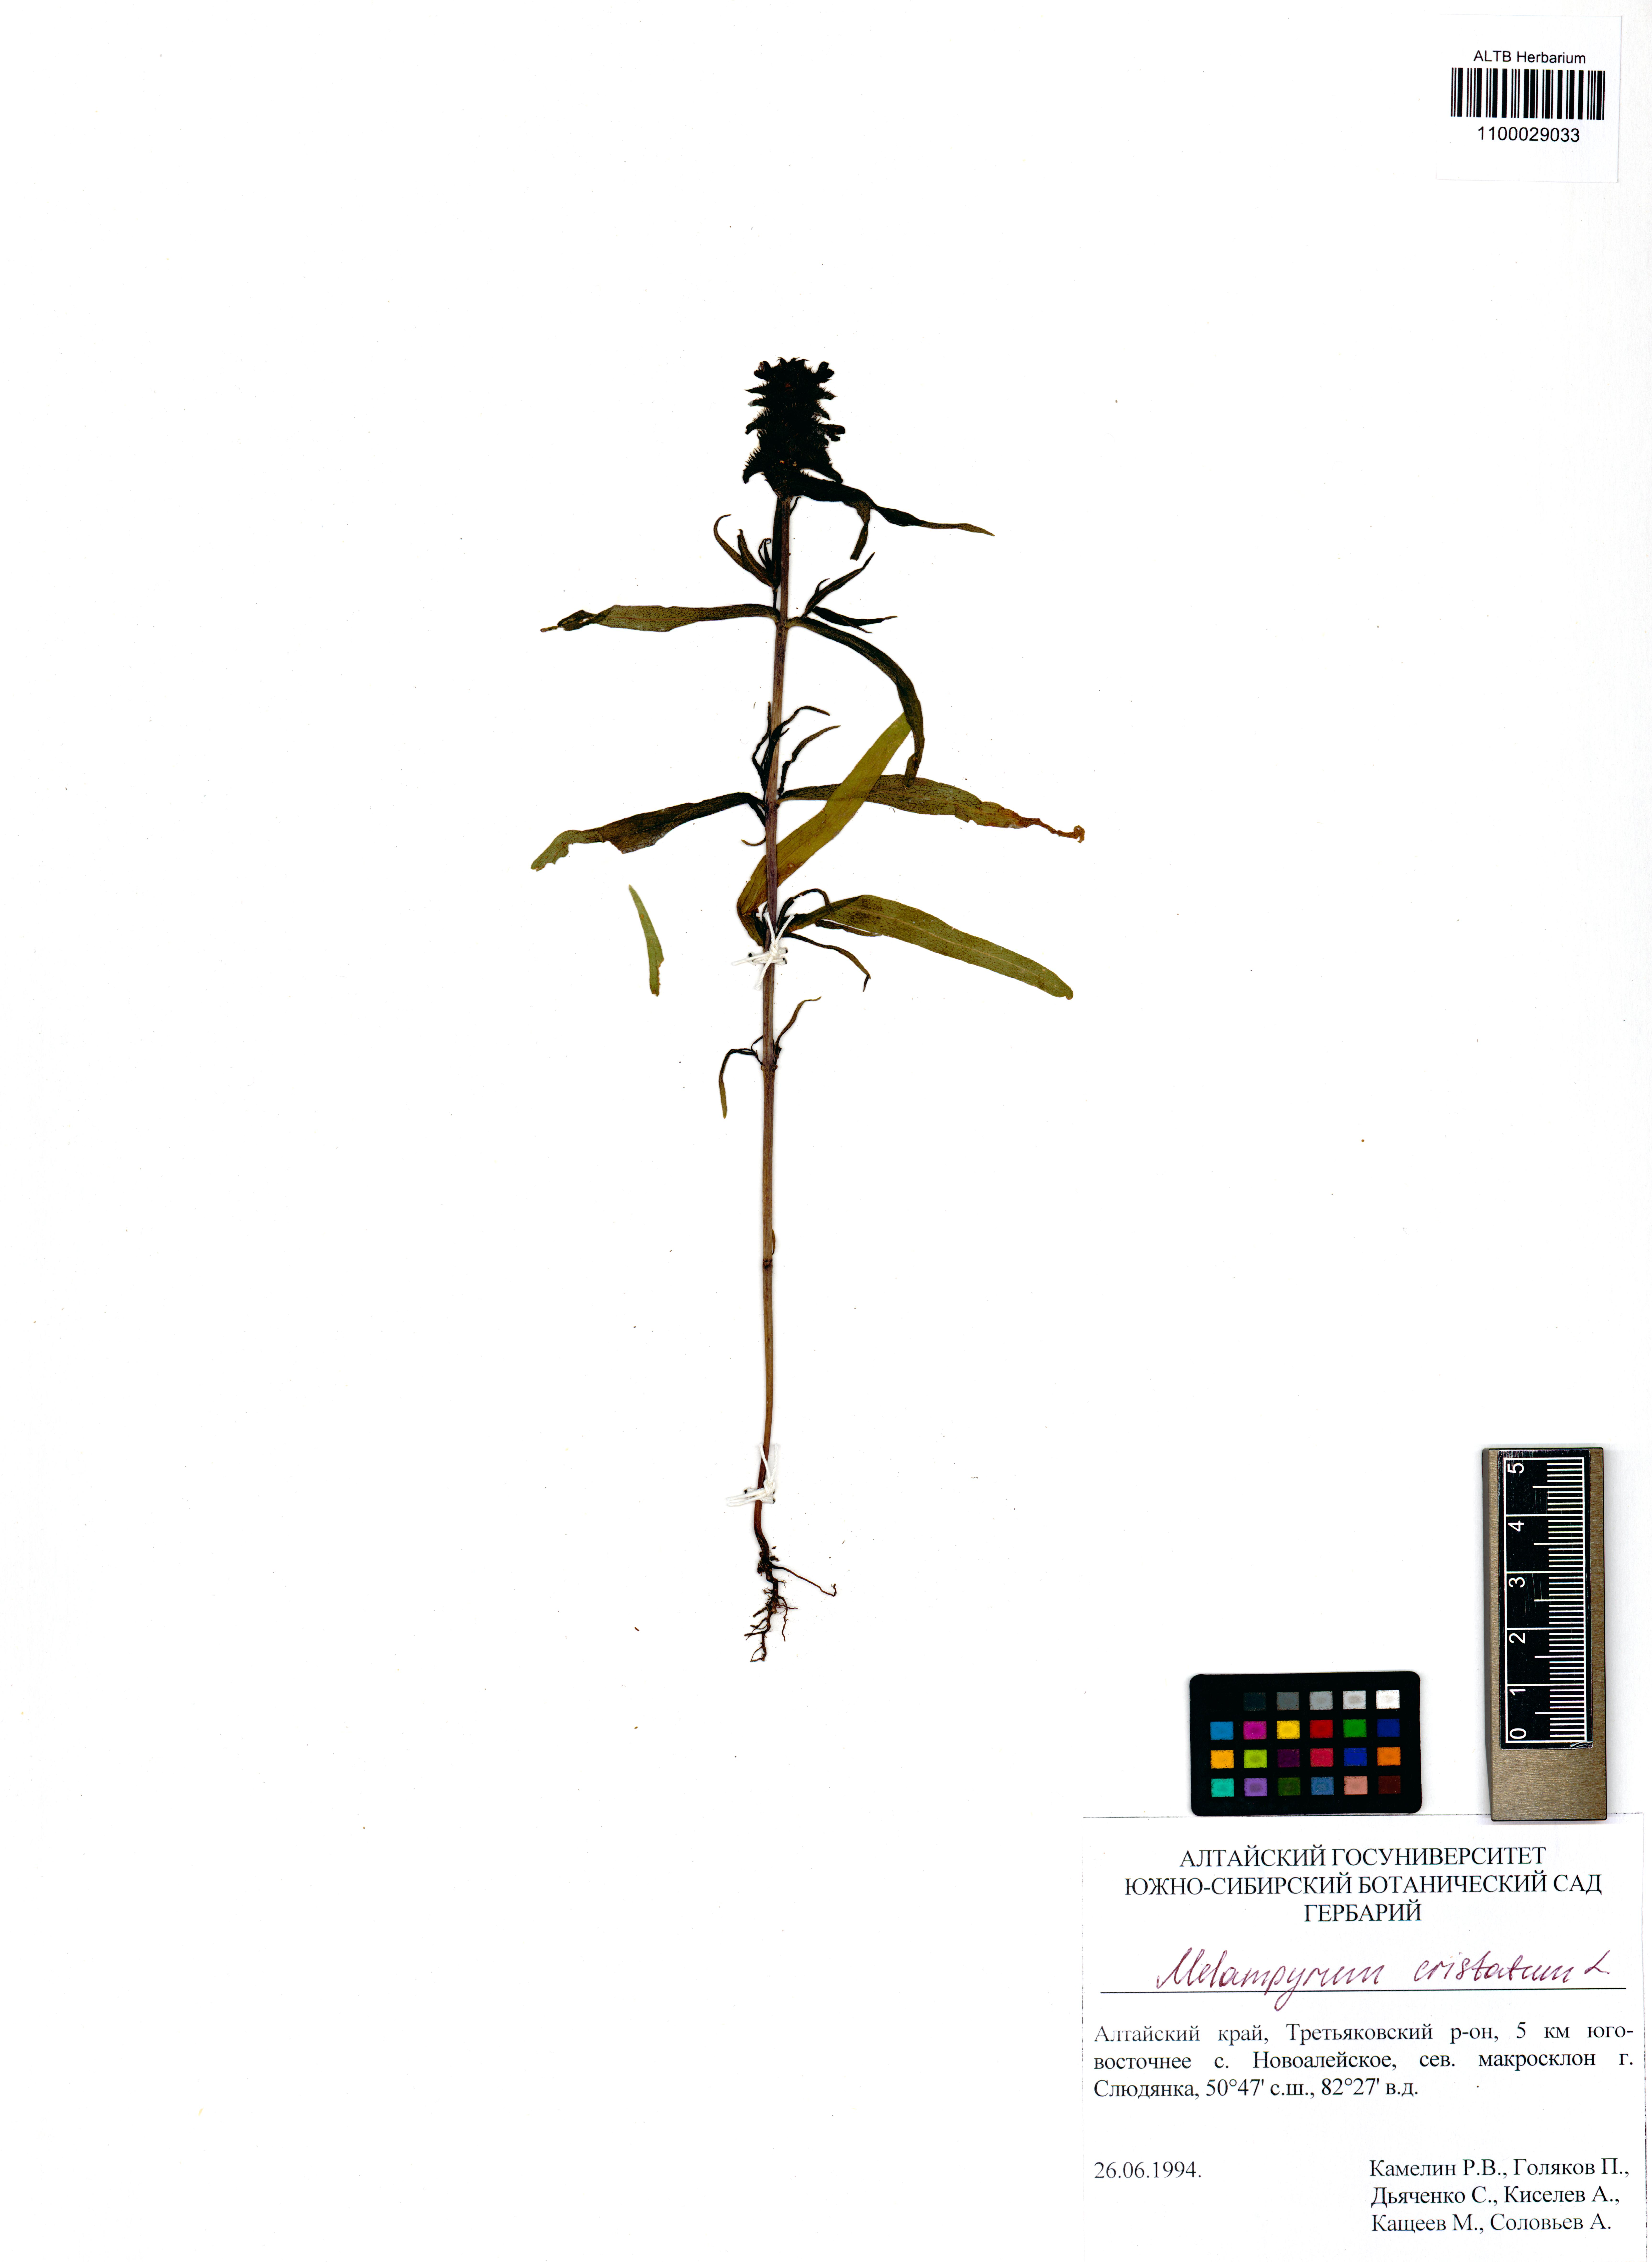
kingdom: Plantae
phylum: Tracheophyta
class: Magnoliopsida
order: Lamiales
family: Orobanchaceae
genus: Melampyrum
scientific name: Melampyrum cristatum
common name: Crested cow-wheat
